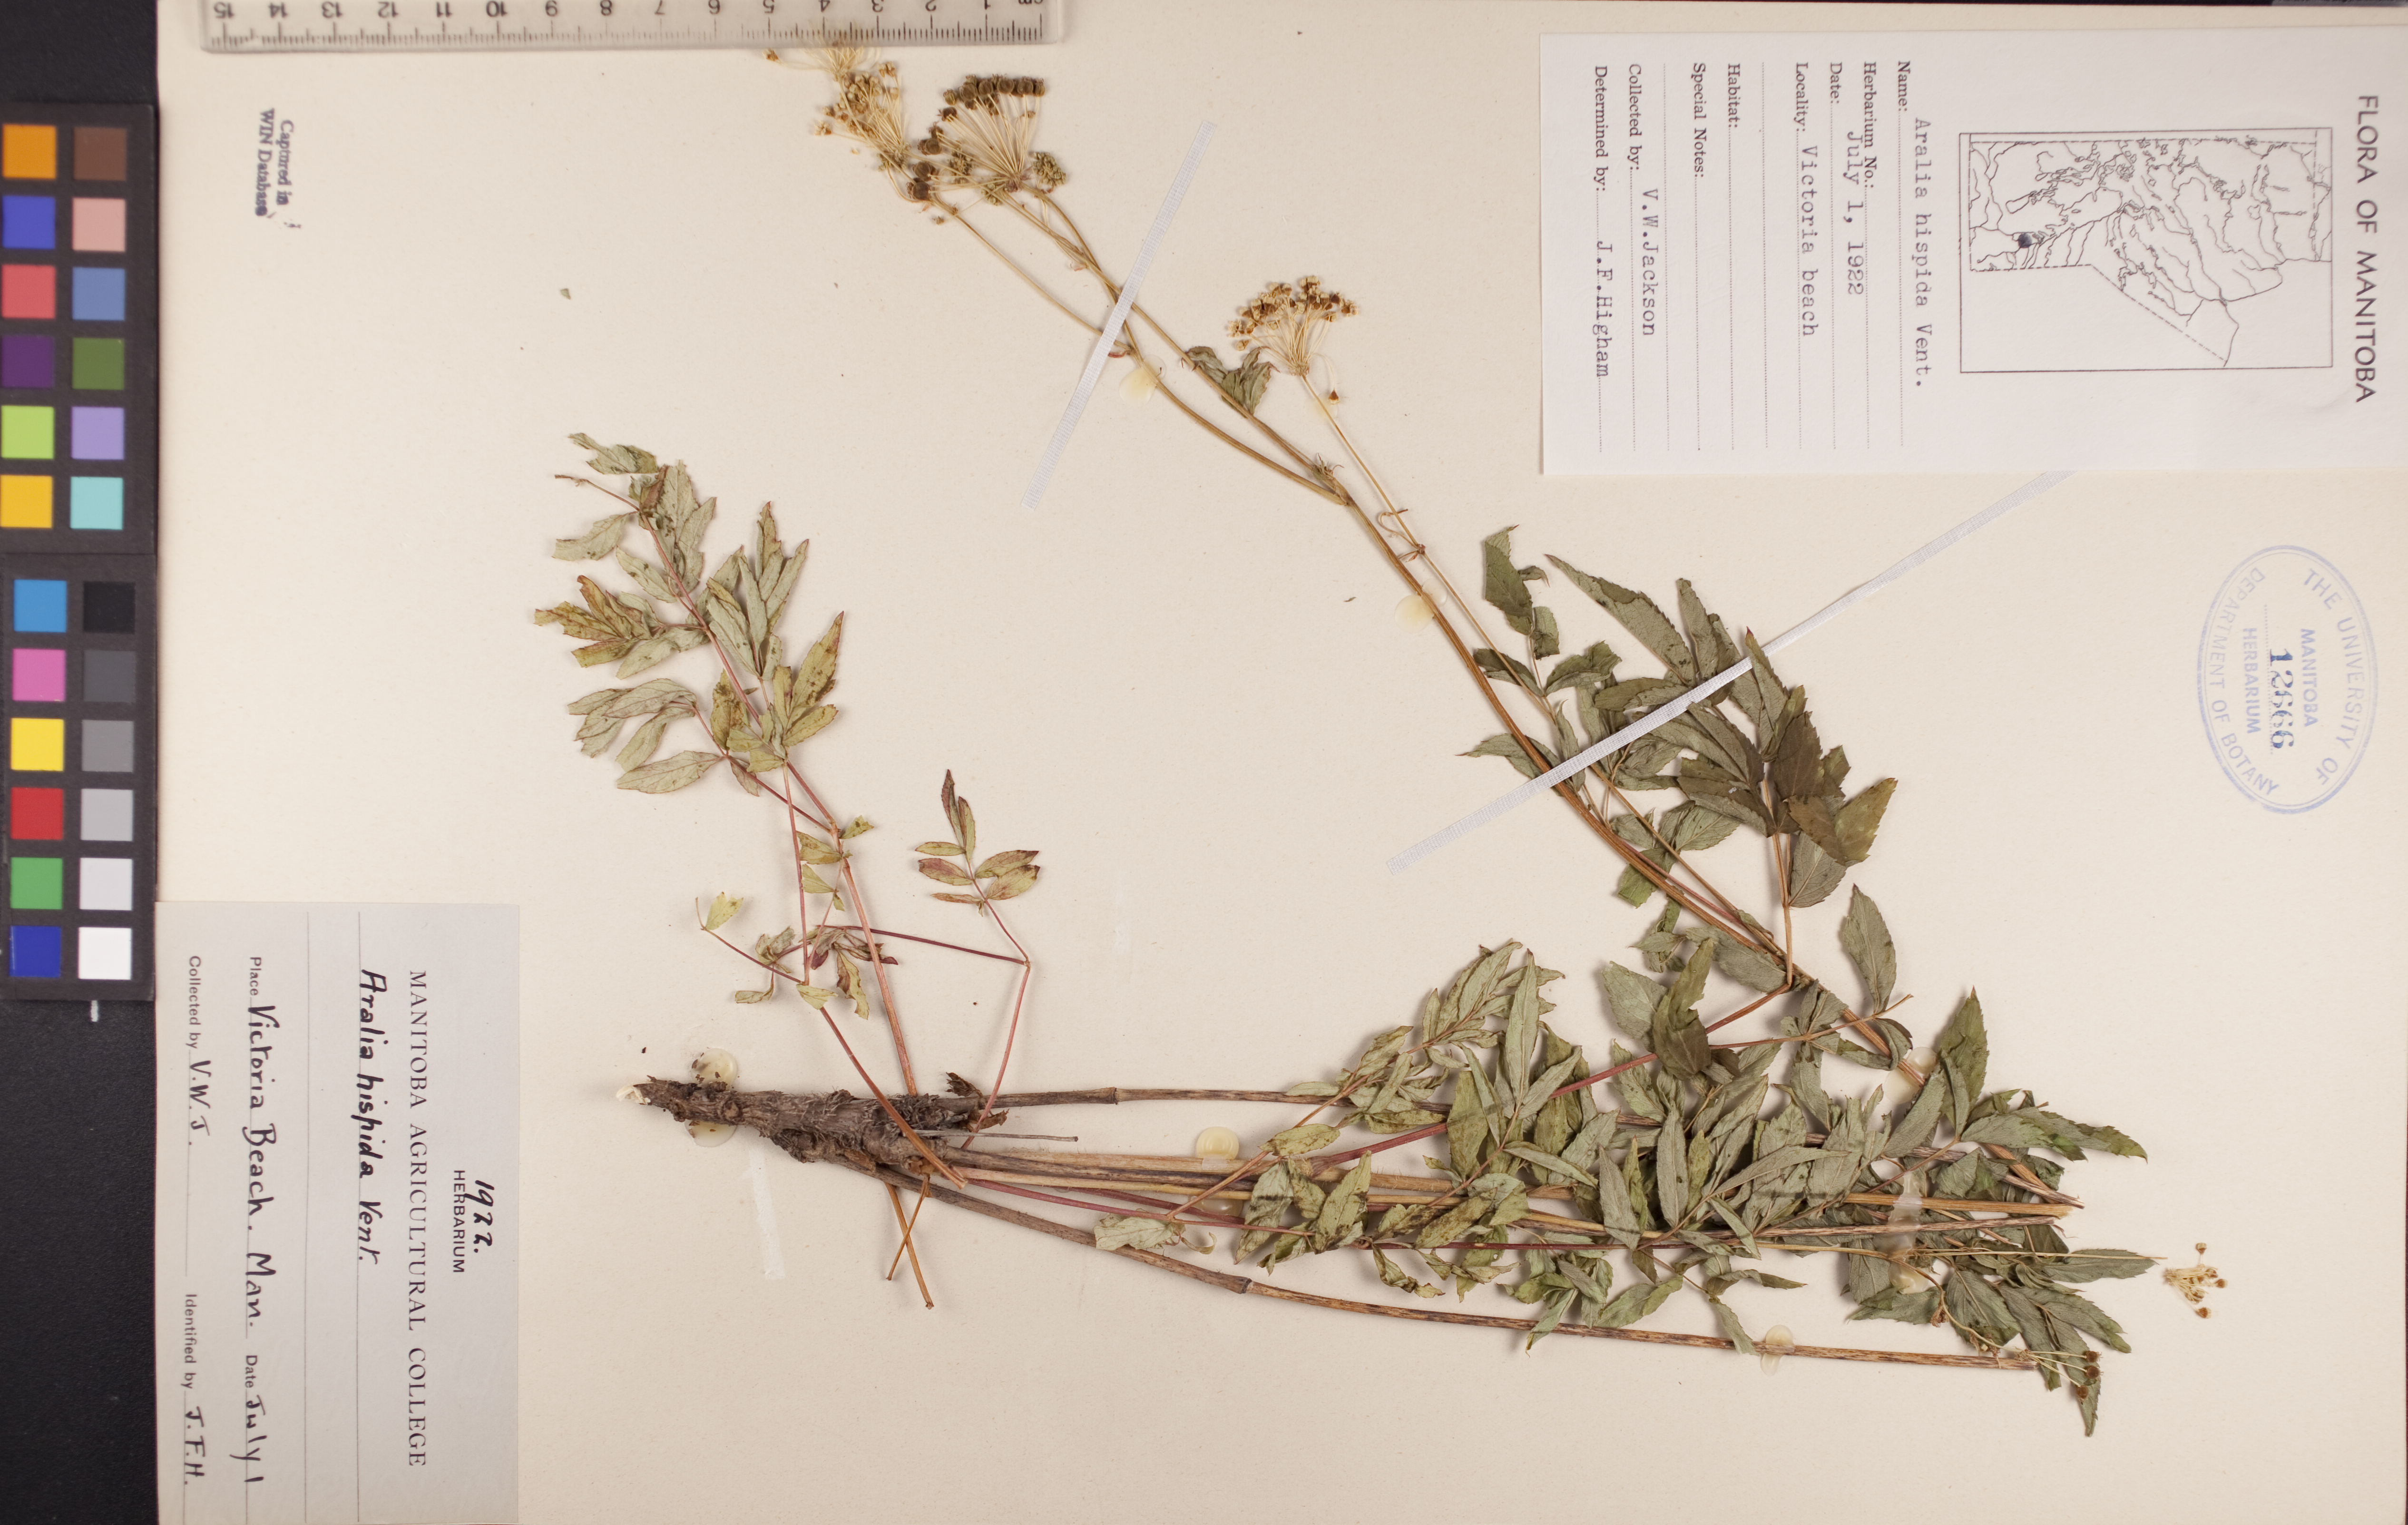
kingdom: Plantae
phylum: Tracheophyta
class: Magnoliopsida
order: Apiales
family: Araliaceae
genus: Aralia
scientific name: Aralia hispida
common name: Bristly sarsaparilla
